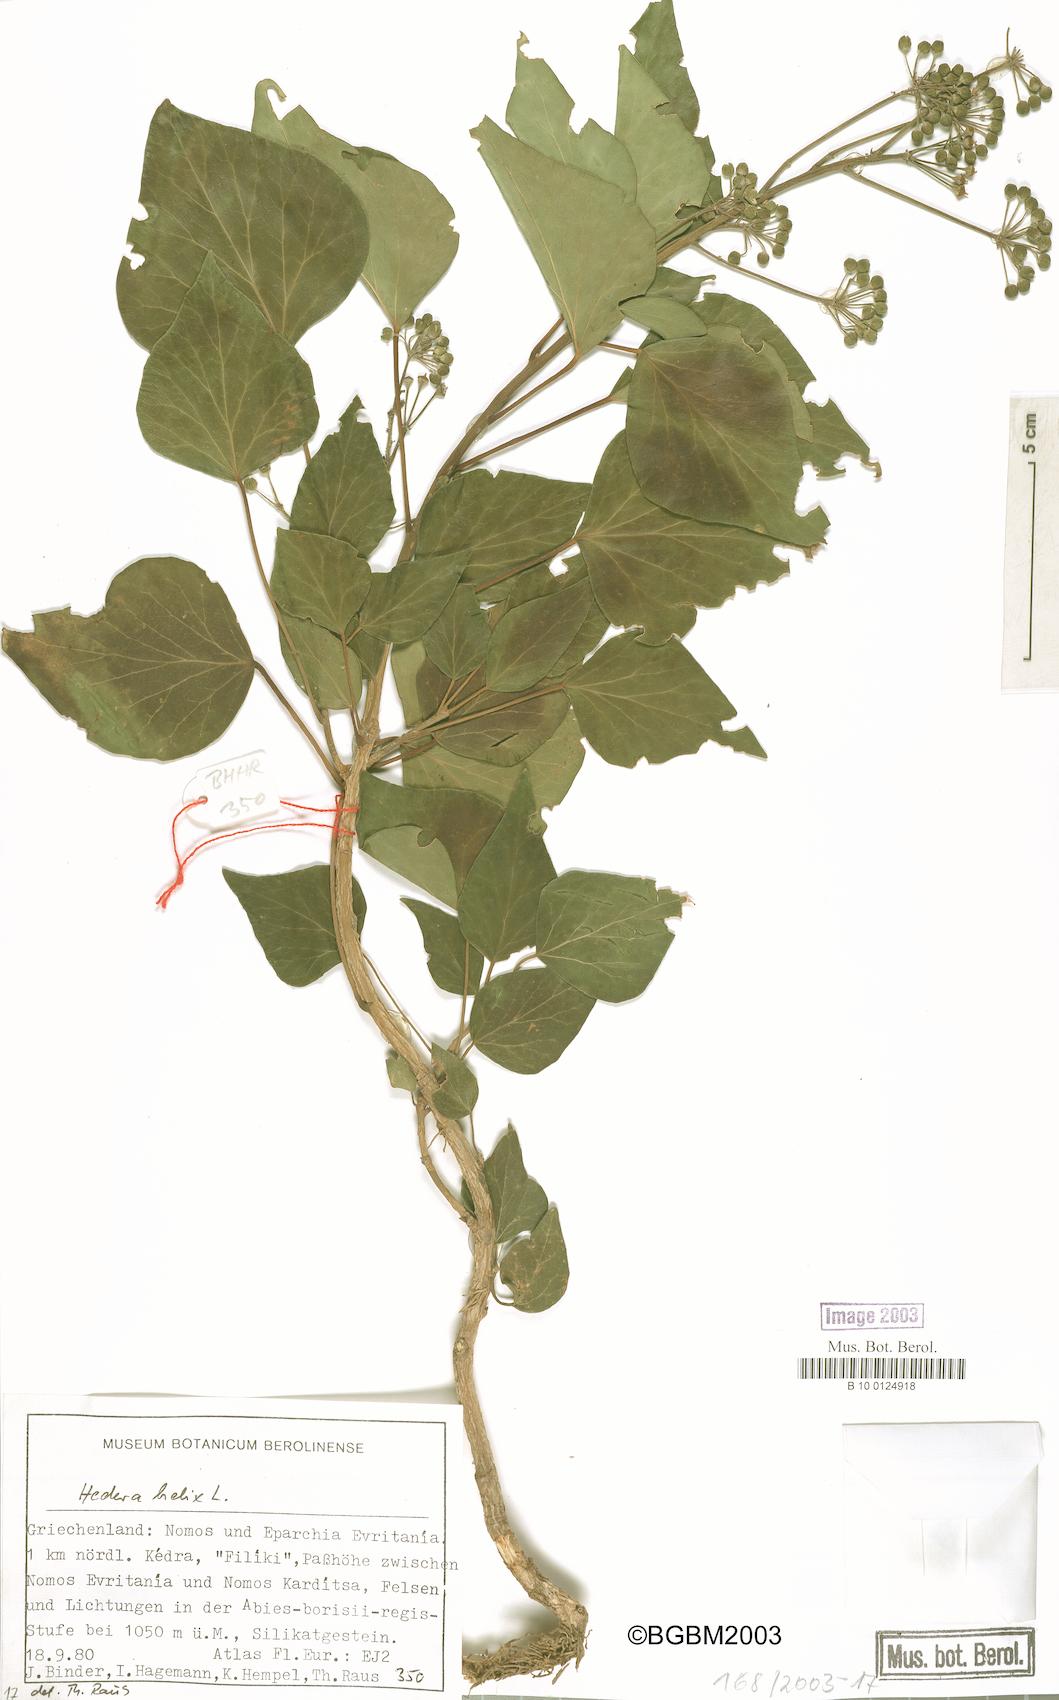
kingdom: Plantae
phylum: Tracheophyta
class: Magnoliopsida
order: Apiales
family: Araliaceae
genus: Hedera
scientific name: Hedera helix
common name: Ivy
